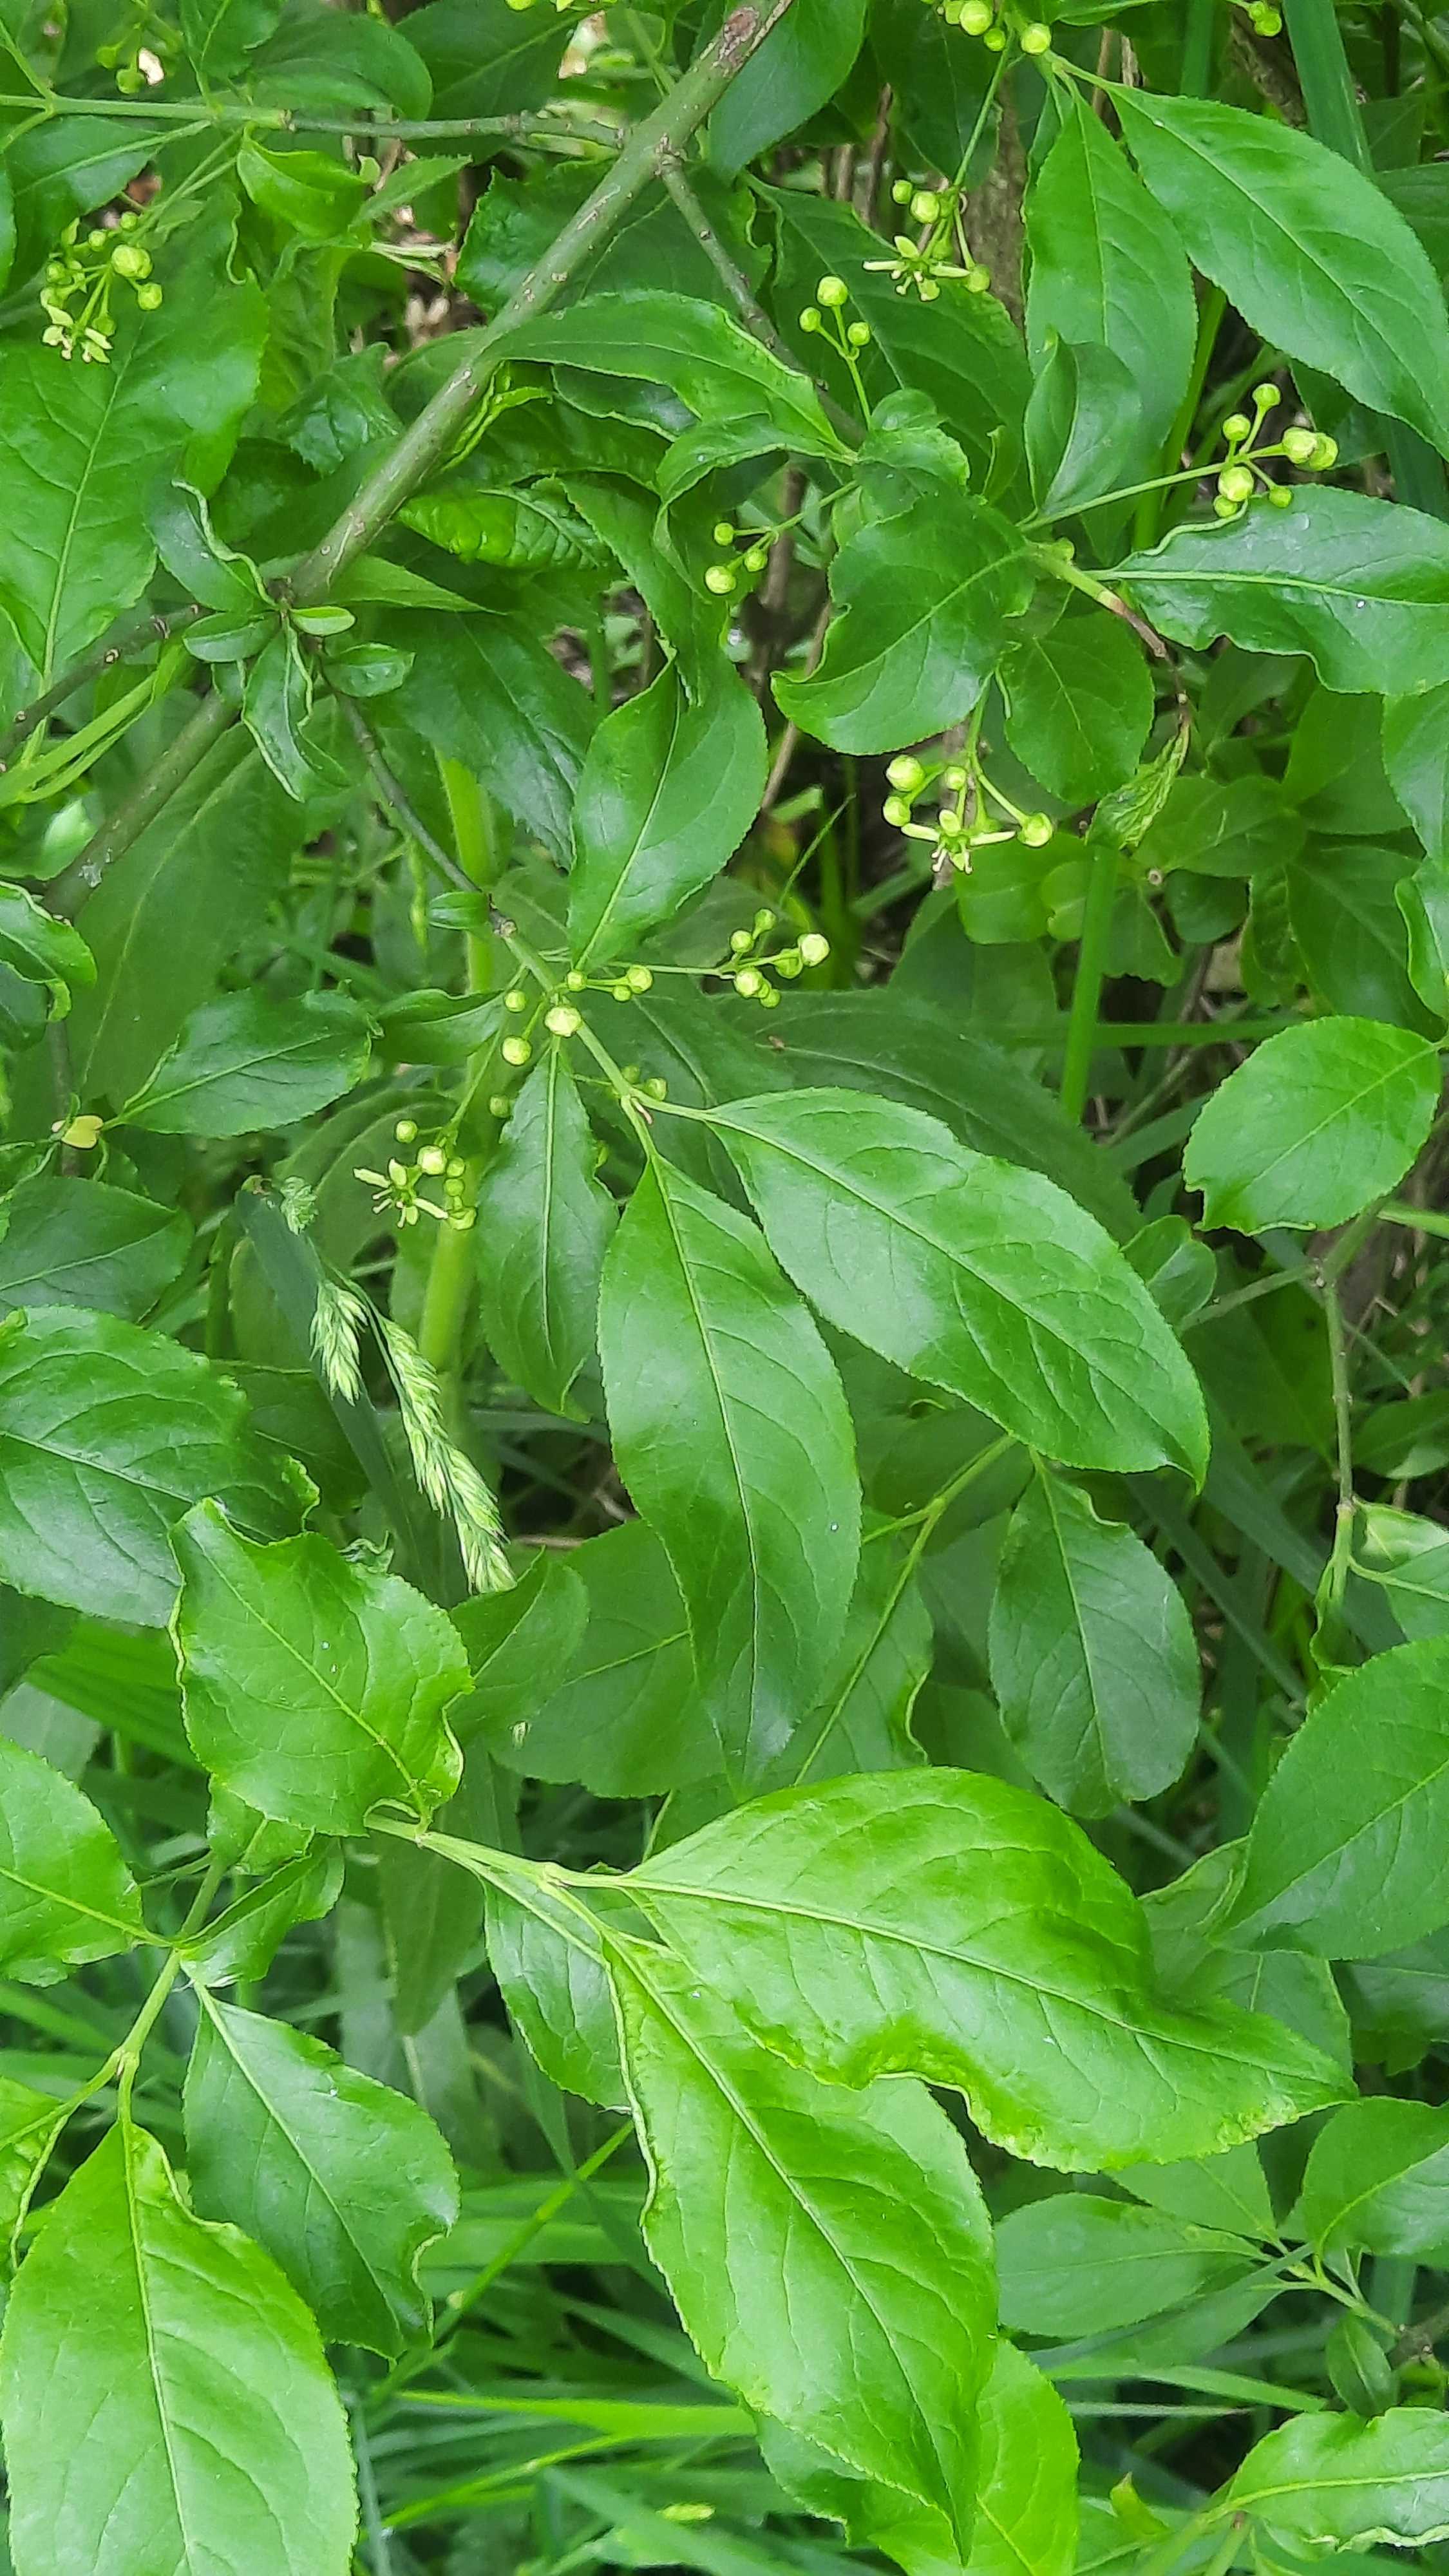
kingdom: Fungi
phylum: Basidiomycota
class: Pucciniomycetes
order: Pucciniales
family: Melampsoraceae
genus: Melampsora
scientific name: Melampsora epitea
